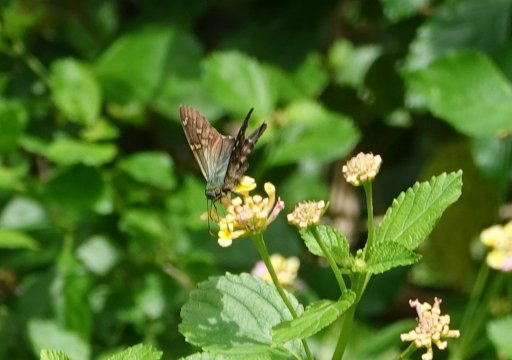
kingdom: Animalia
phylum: Arthropoda
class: Insecta
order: Lepidoptera
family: Hesperiidae
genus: Urbanus
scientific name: Urbanus proteus
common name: Long-tailed Skipper
